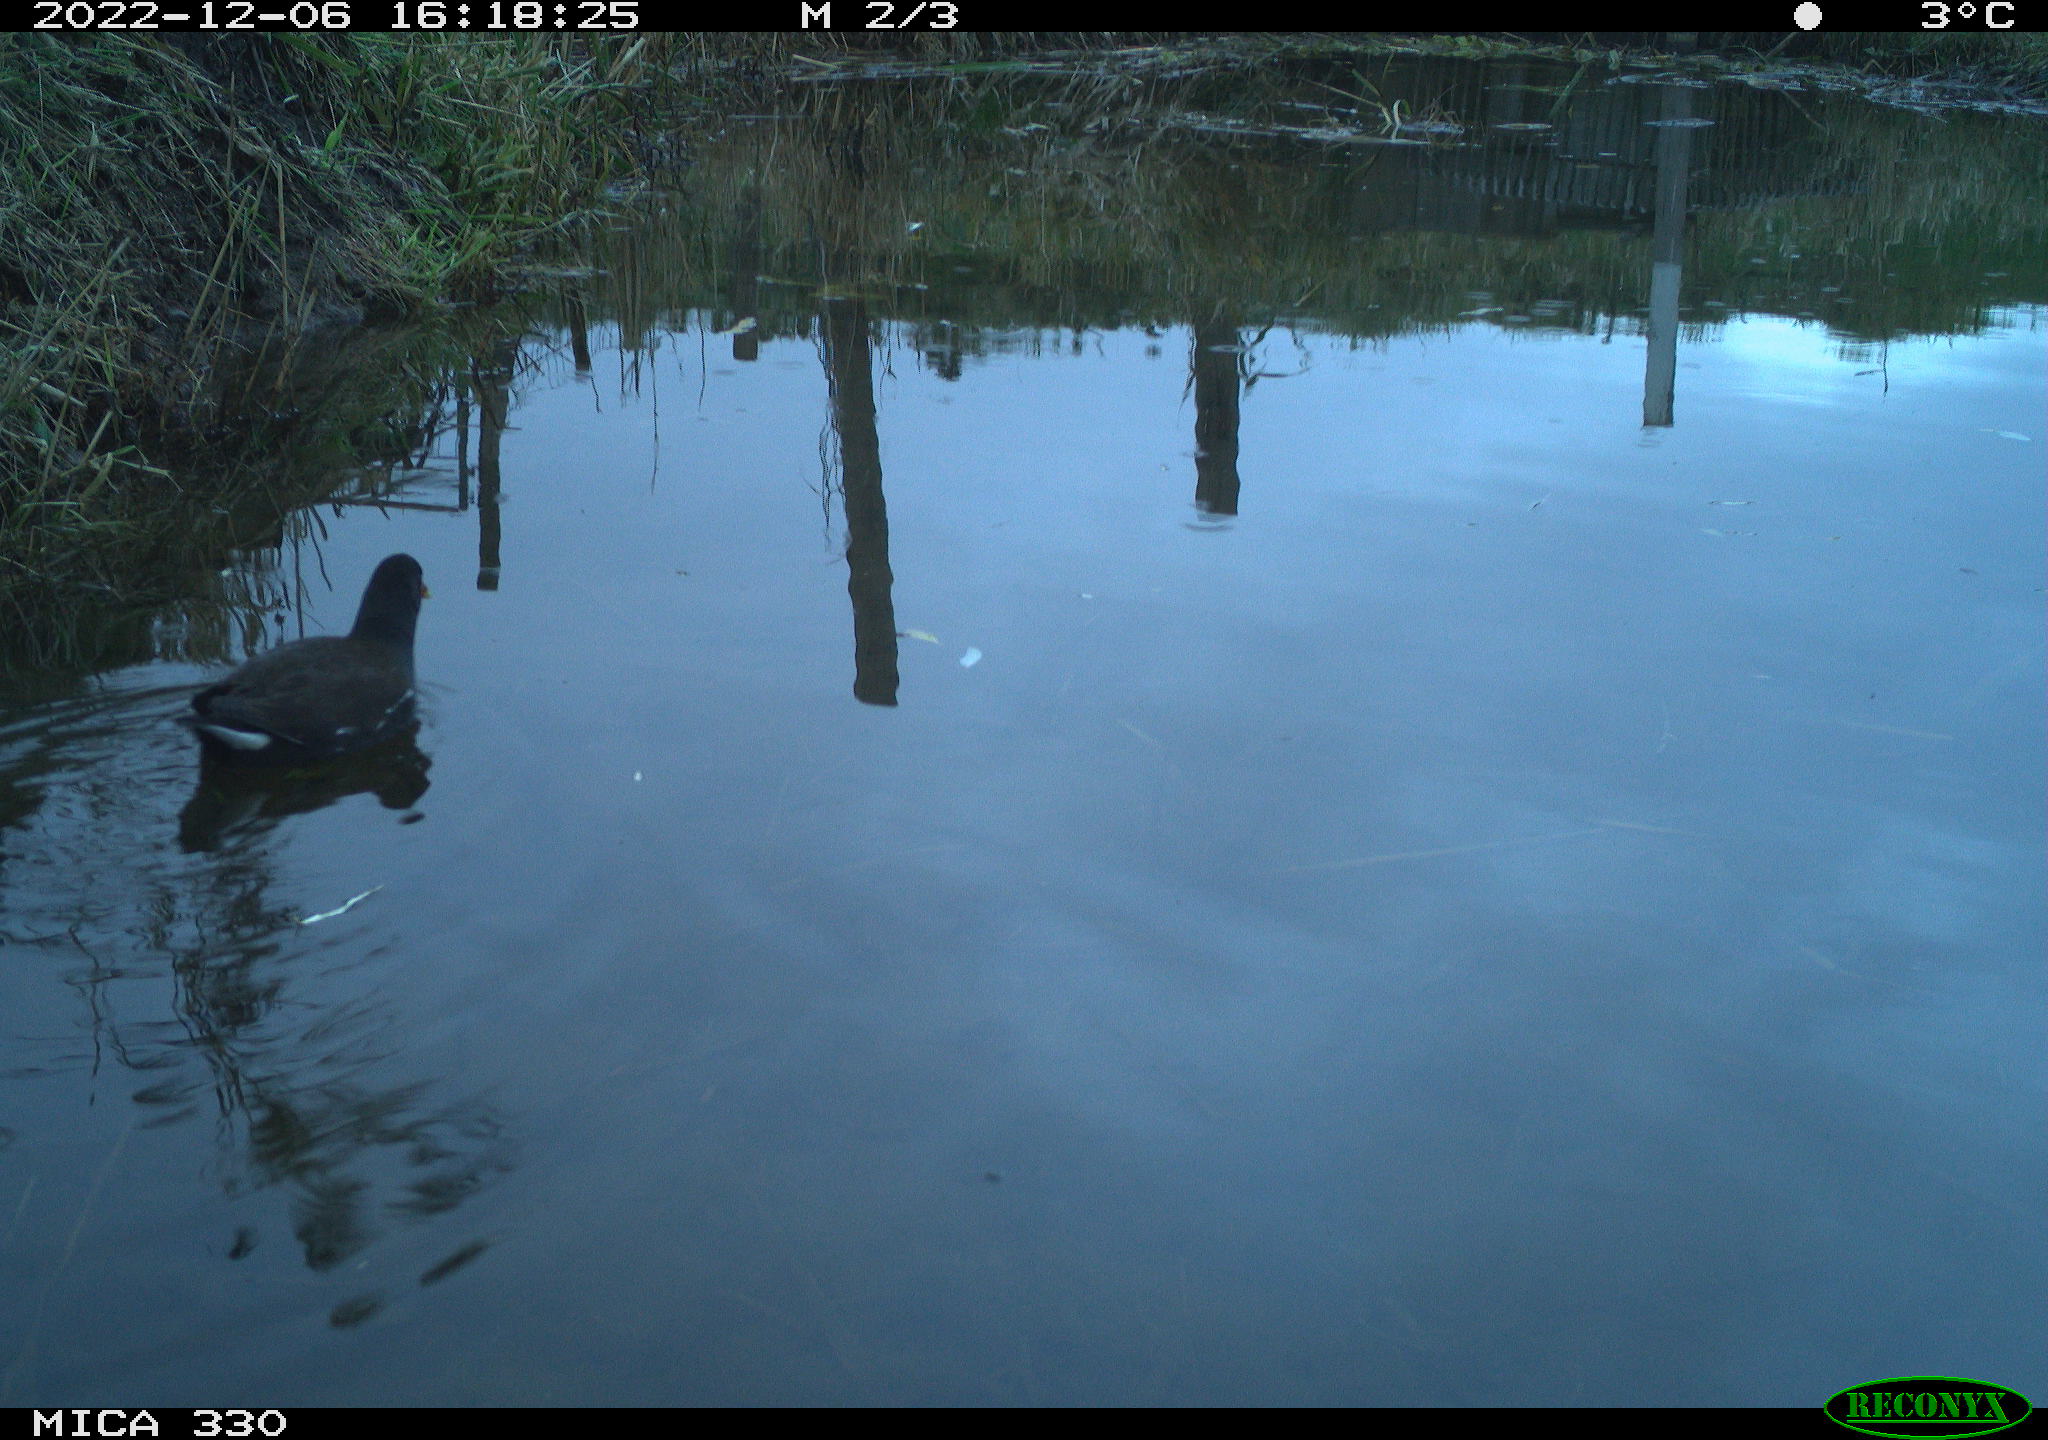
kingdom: Animalia
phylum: Chordata
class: Aves
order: Gruiformes
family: Rallidae
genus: Gallinula
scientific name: Gallinula chloropus
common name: Common moorhen
